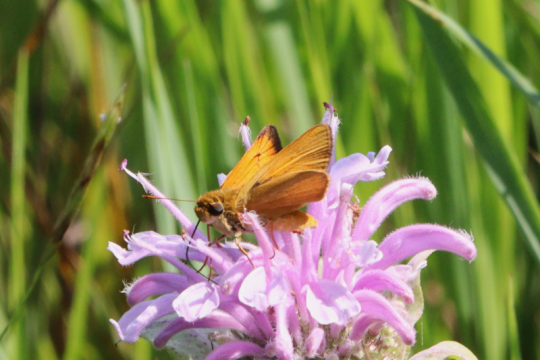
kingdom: Animalia
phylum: Arthropoda
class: Insecta
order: Lepidoptera
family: Hesperiidae
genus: Atrytone
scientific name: Atrytone delaware
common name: Delaware Skipper
